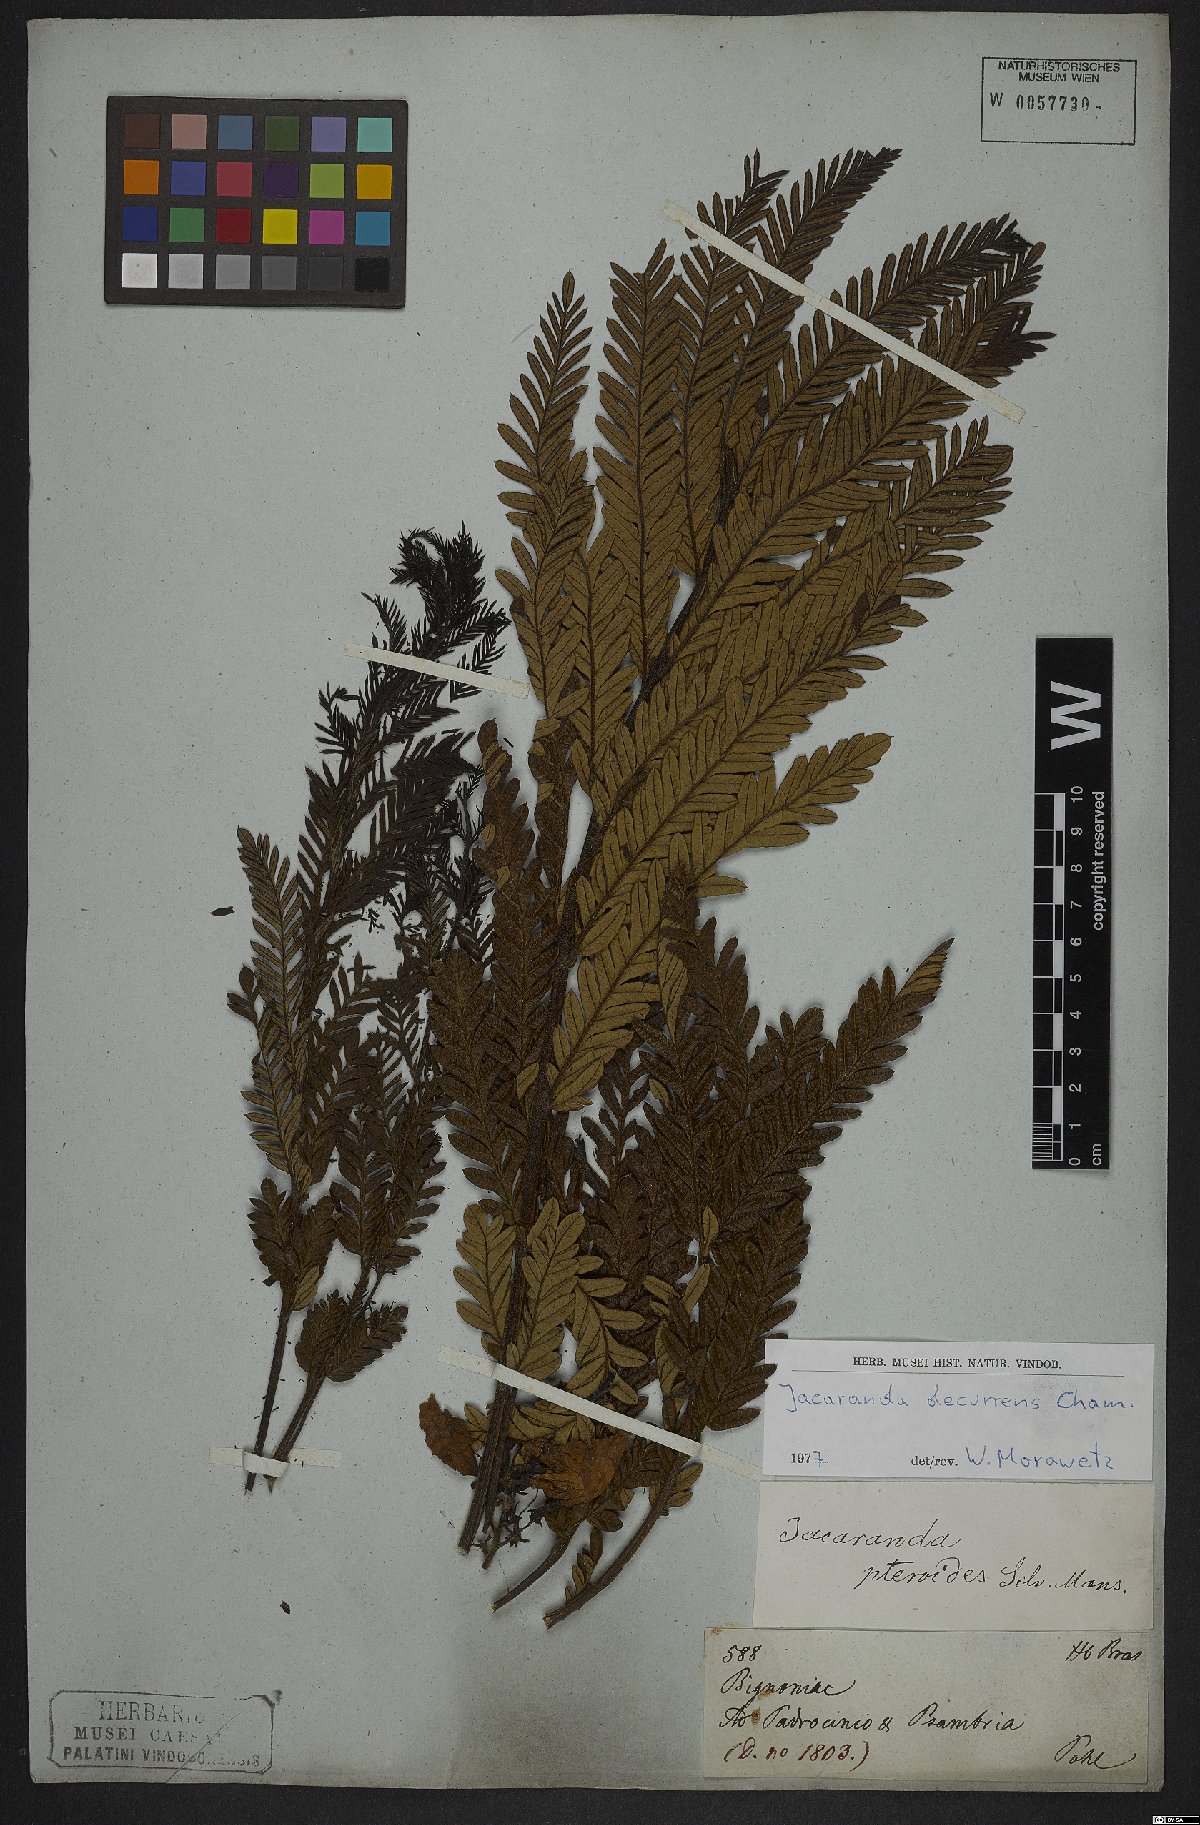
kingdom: Plantae
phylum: Tracheophyta
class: Magnoliopsida
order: Lamiales
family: Bignoniaceae
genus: Jacaranda
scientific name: Jacaranda decurrens
